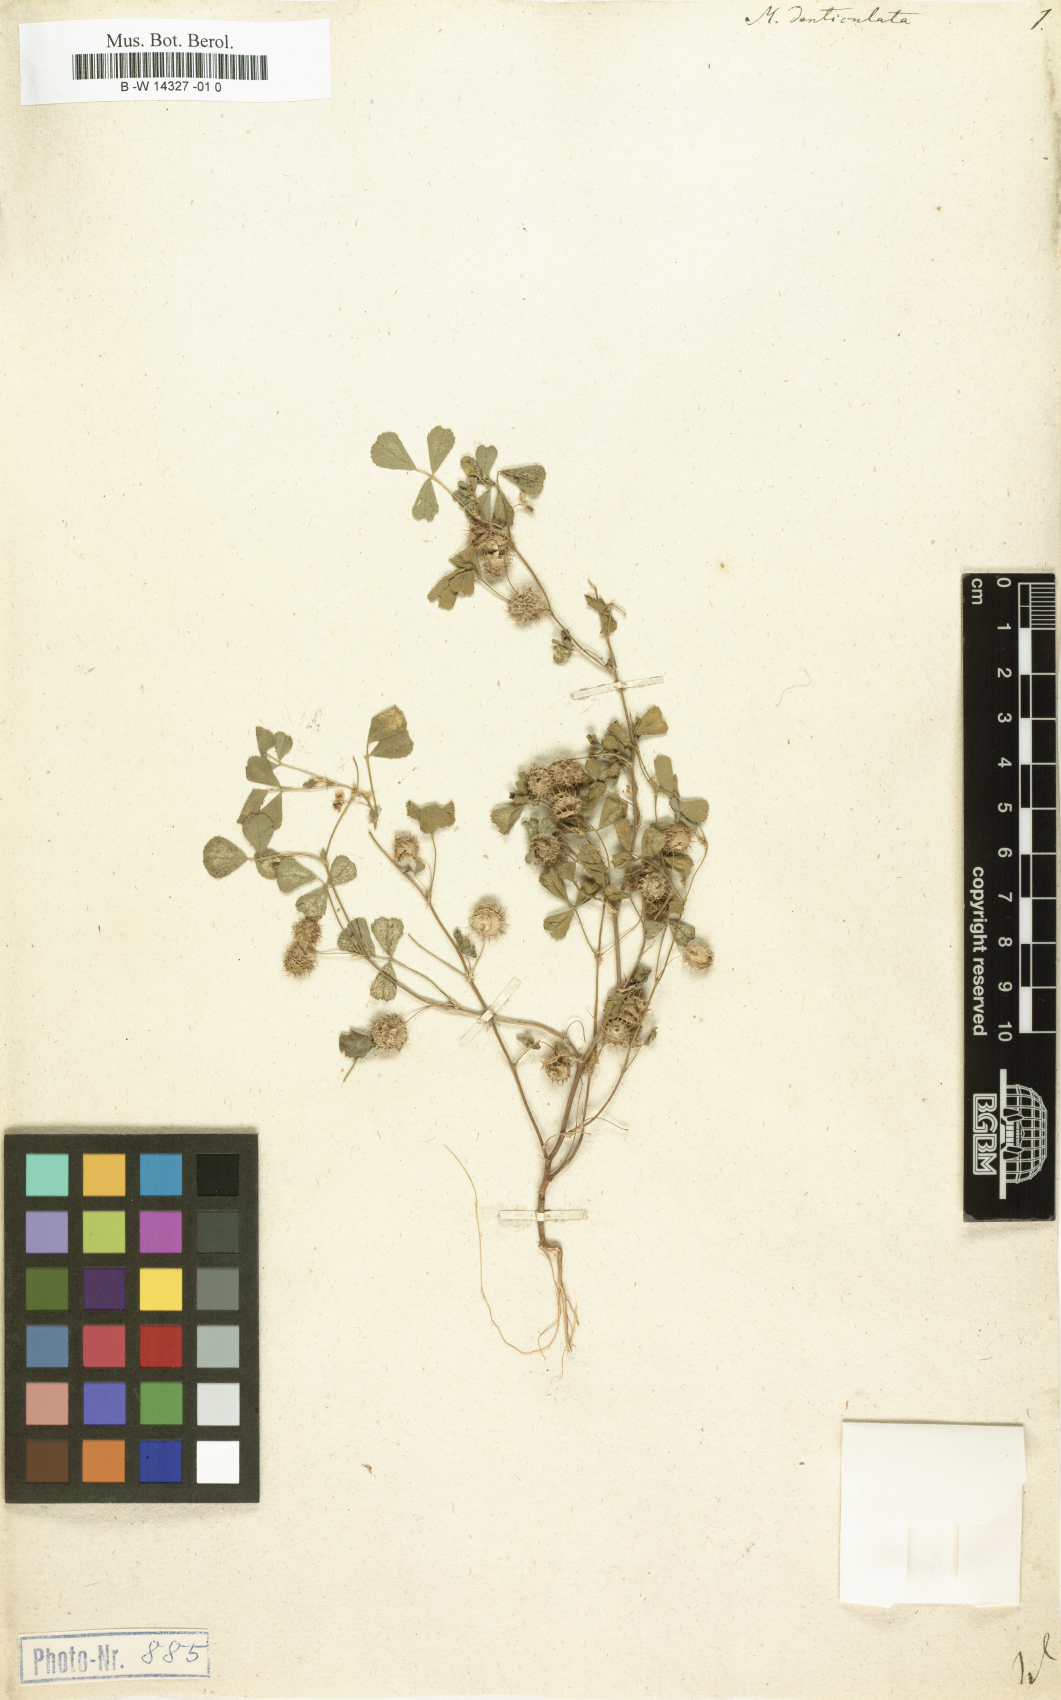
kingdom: Plantae
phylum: Tracheophyta
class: Magnoliopsida
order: Fabales
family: Fabaceae
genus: Medicago
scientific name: Medicago polymorpha
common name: Burclover
